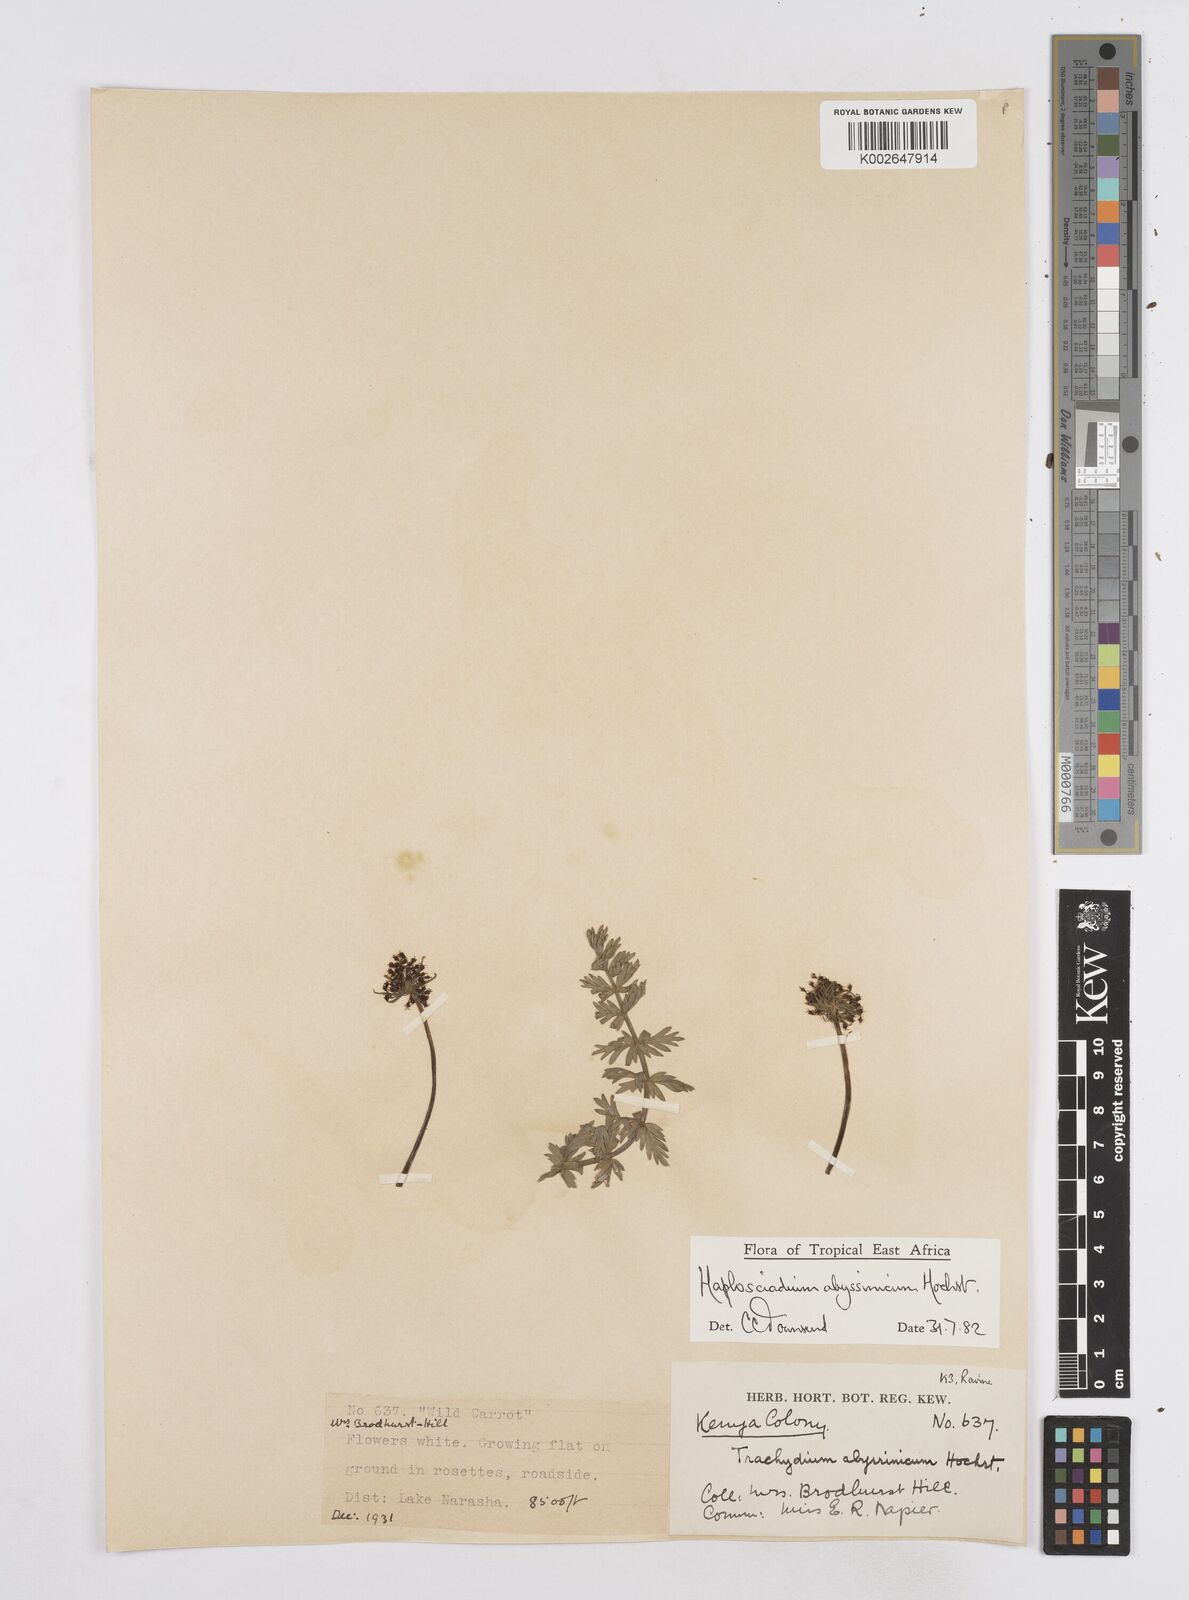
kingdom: Plantae
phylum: Tracheophyta
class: Magnoliopsida
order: Apiales
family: Apiaceae
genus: Haplosciadium
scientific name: Haplosciadium abyssinicum
